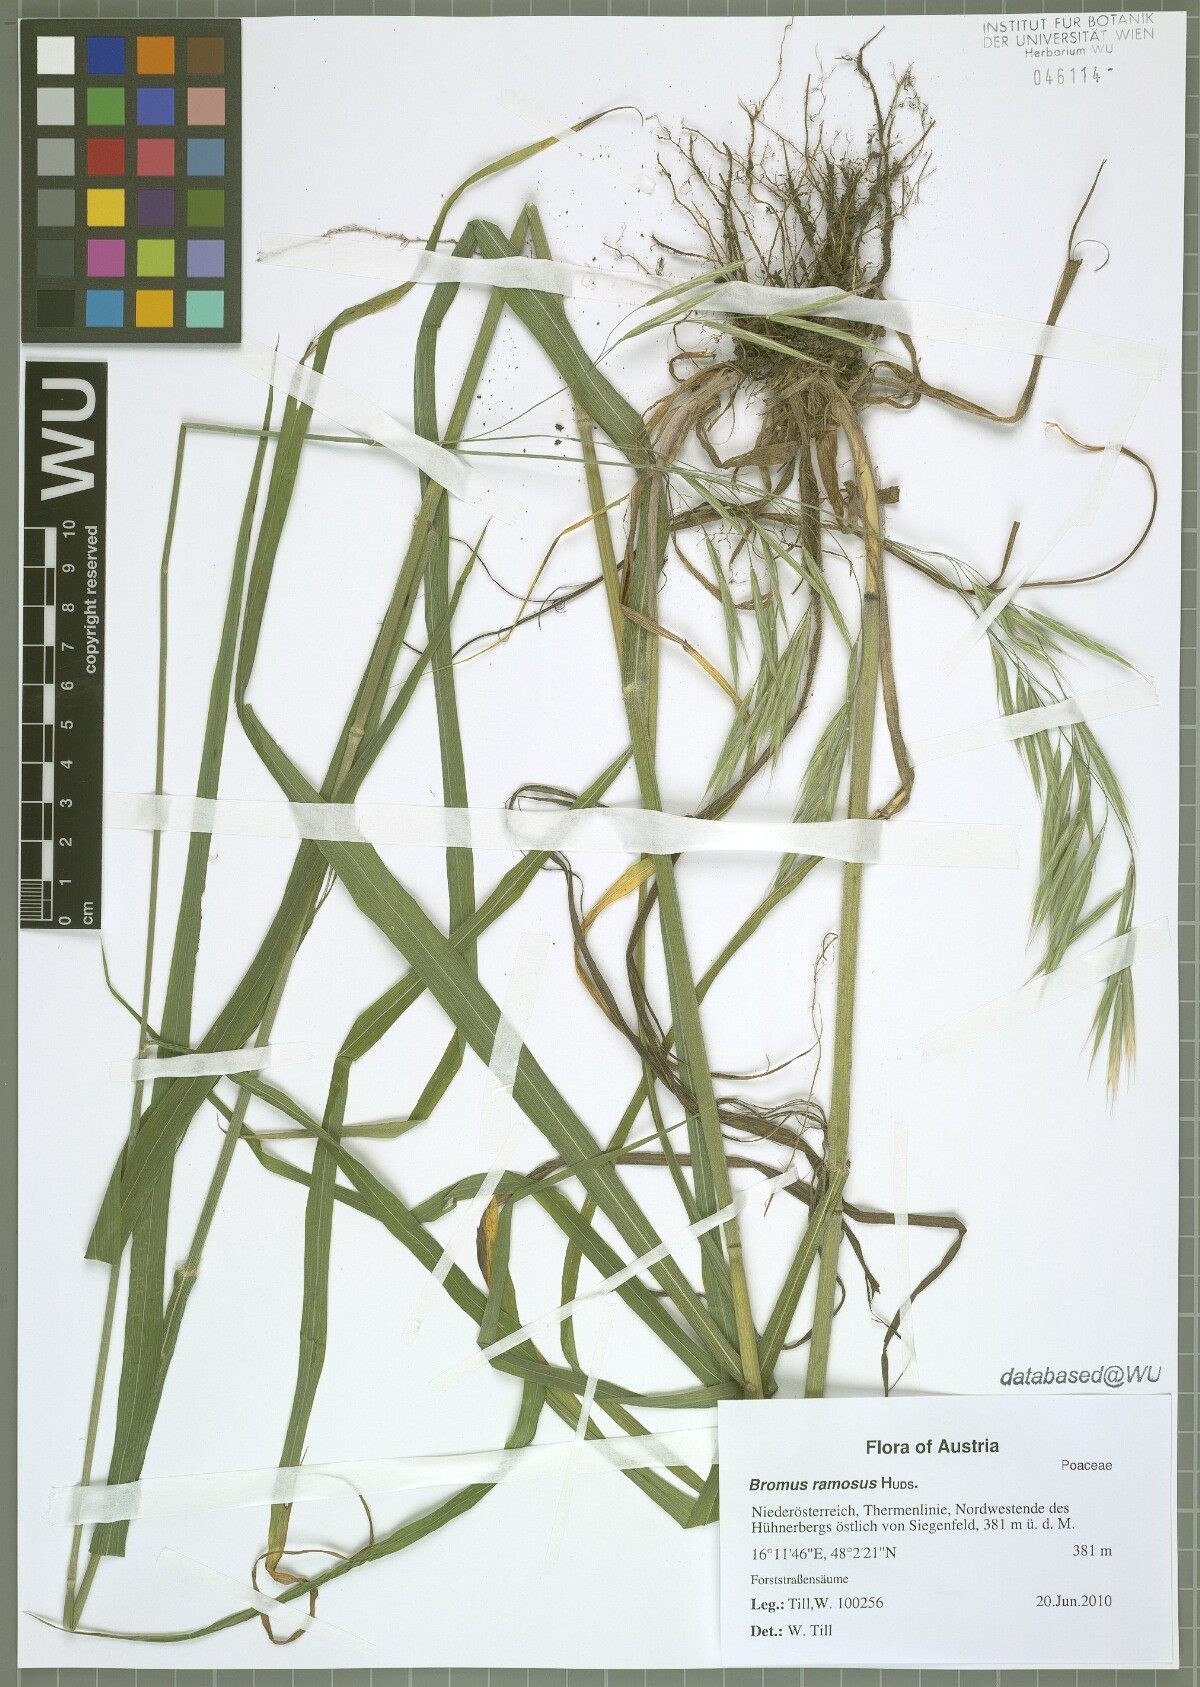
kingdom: Plantae
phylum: Tracheophyta
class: Liliopsida
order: Poales
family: Poaceae
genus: Bromus
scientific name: Bromus ramosus
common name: Hairy brome
